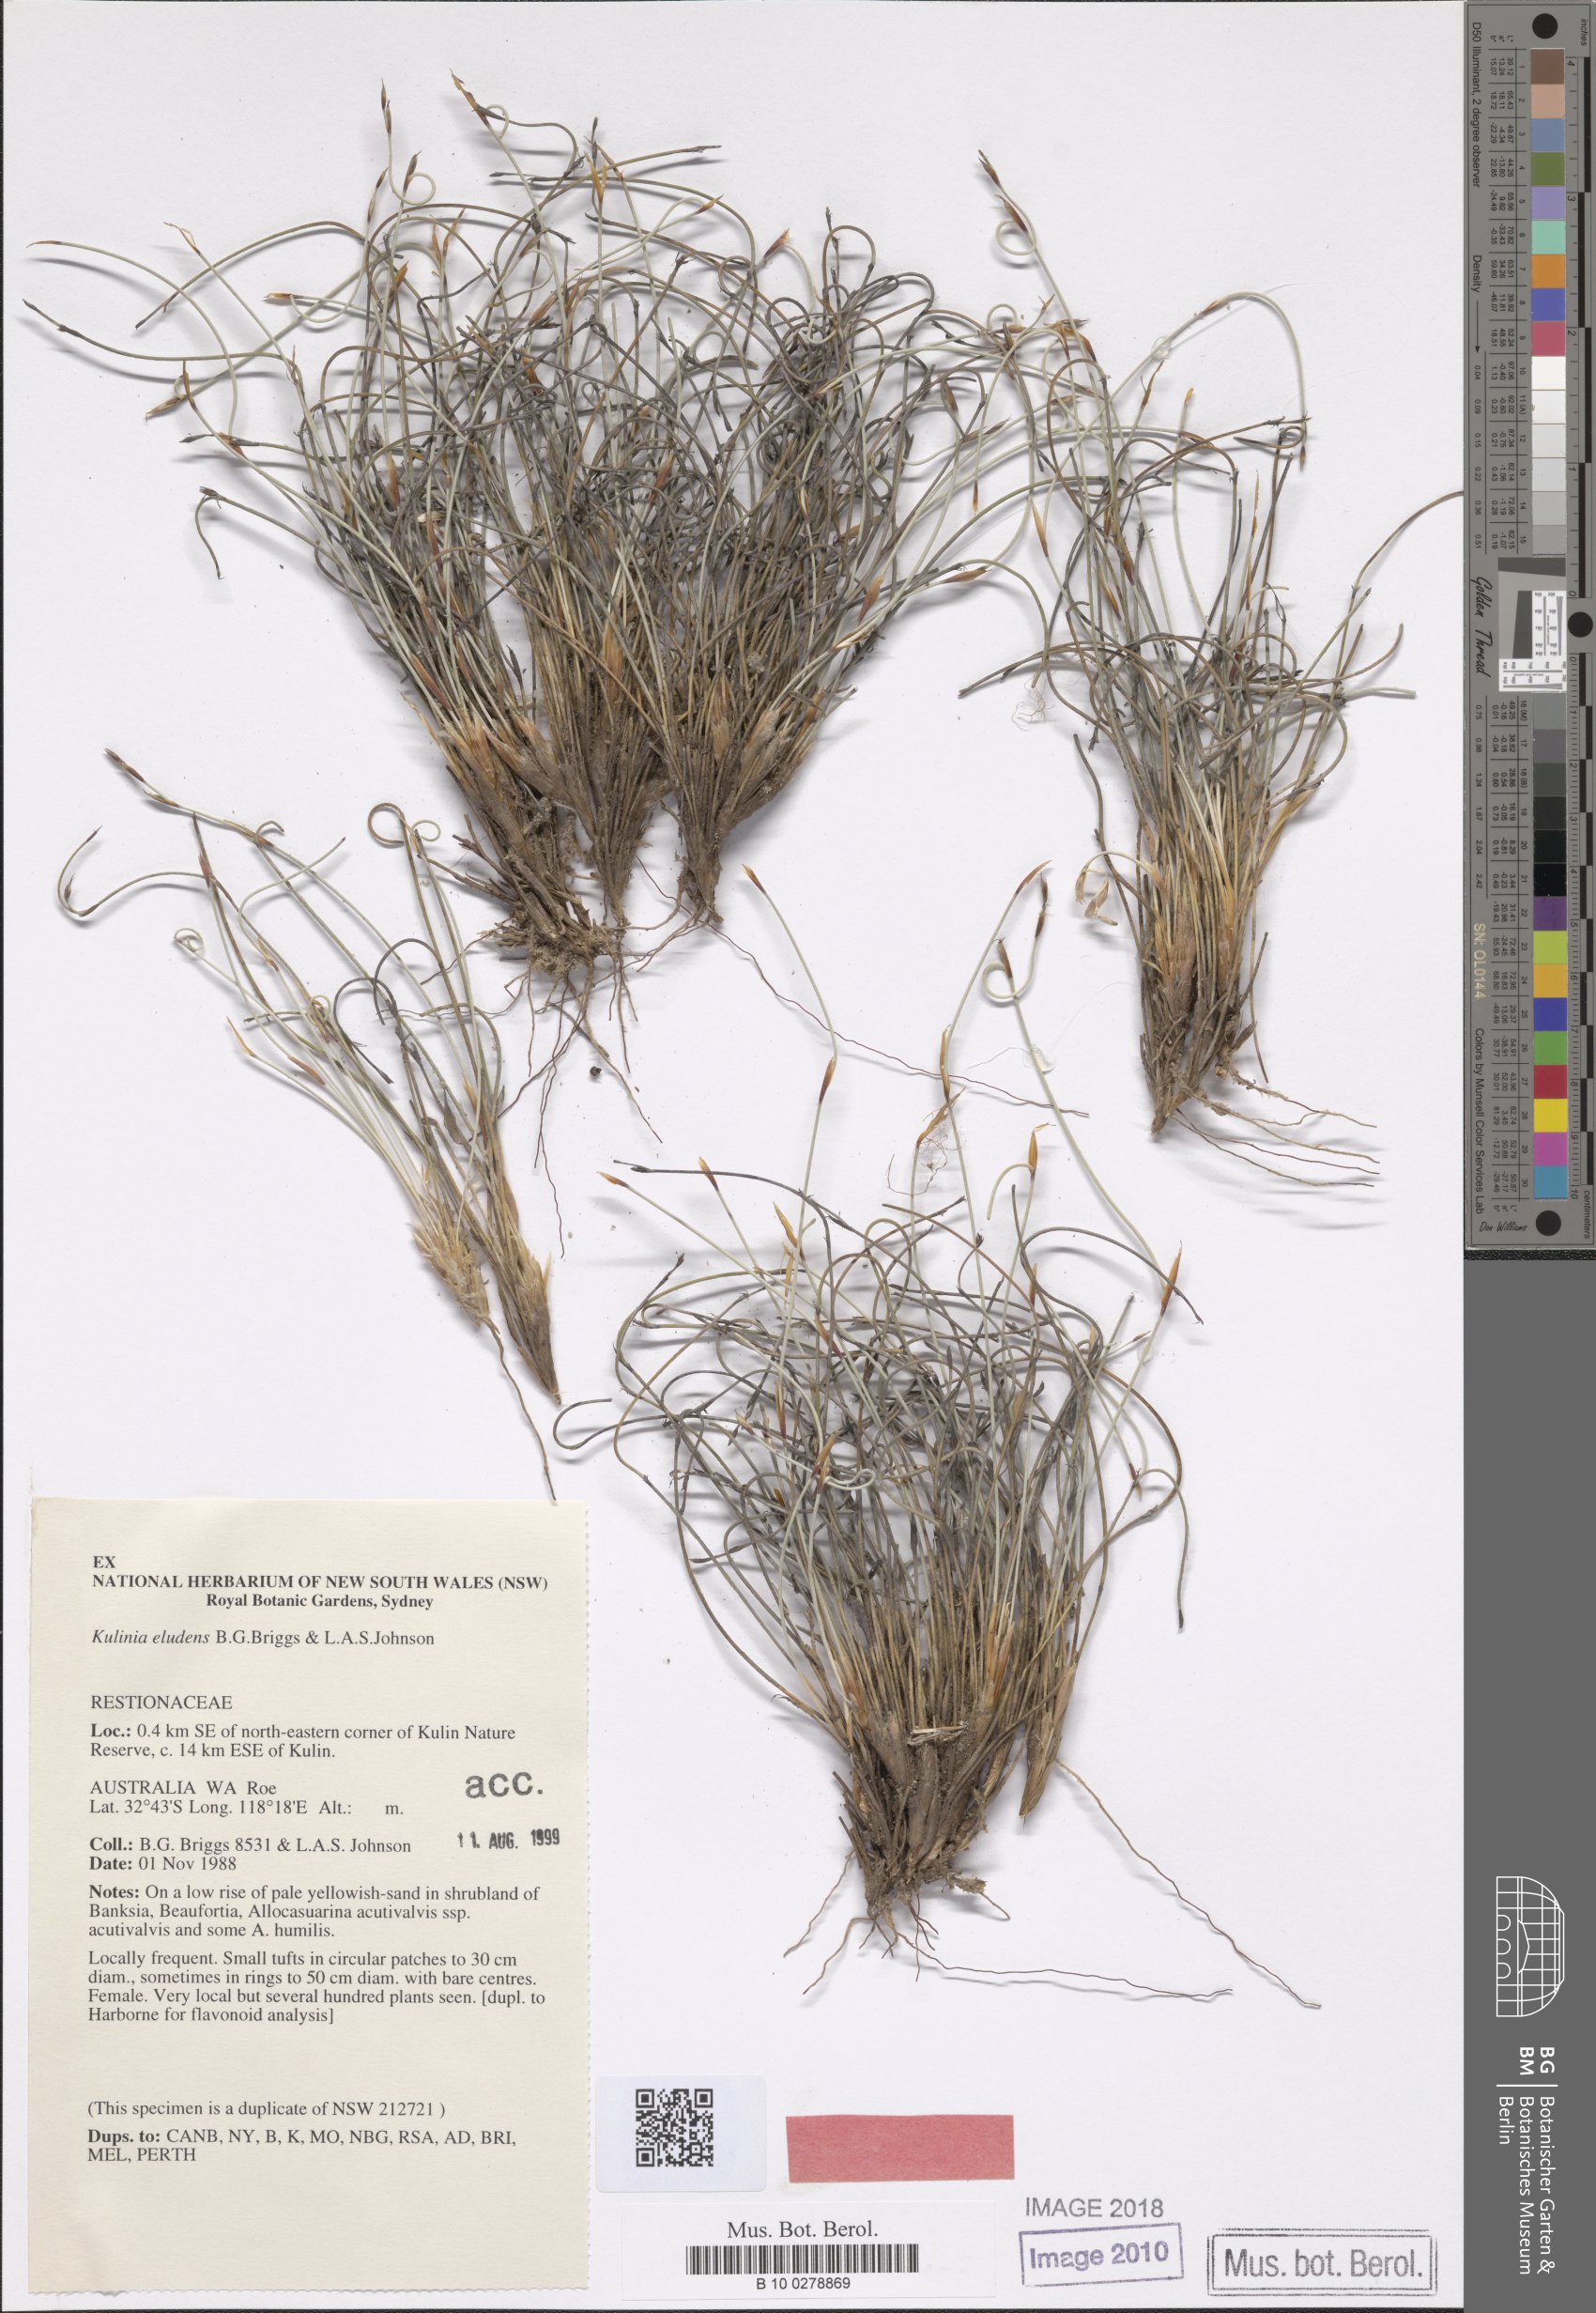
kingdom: Plantae
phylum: Tracheophyta
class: Liliopsida
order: Poales
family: Restionaceae
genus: Desmocladus
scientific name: Desmocladus eludens
